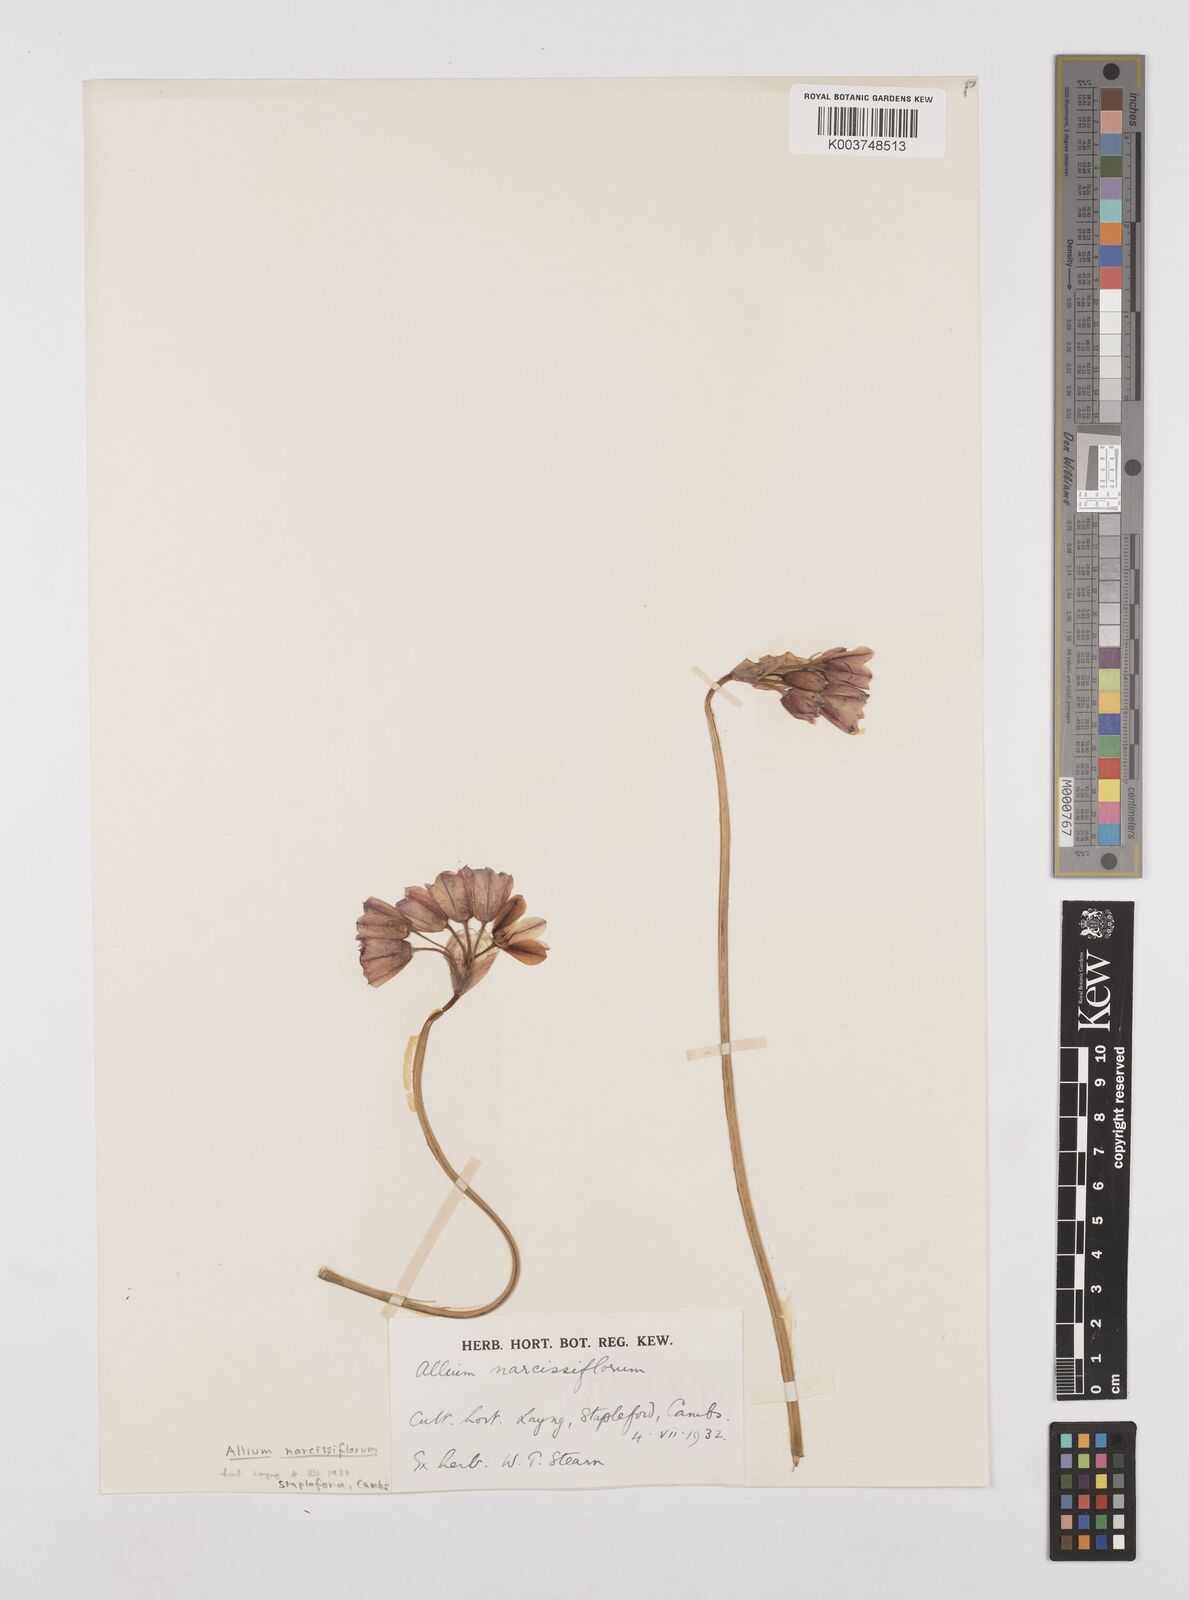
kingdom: Plantae
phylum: Tracheophyta
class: Liliopsida
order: Asparagales
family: Amaryllidaceae
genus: Allium
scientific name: Allium narcissiflorum
